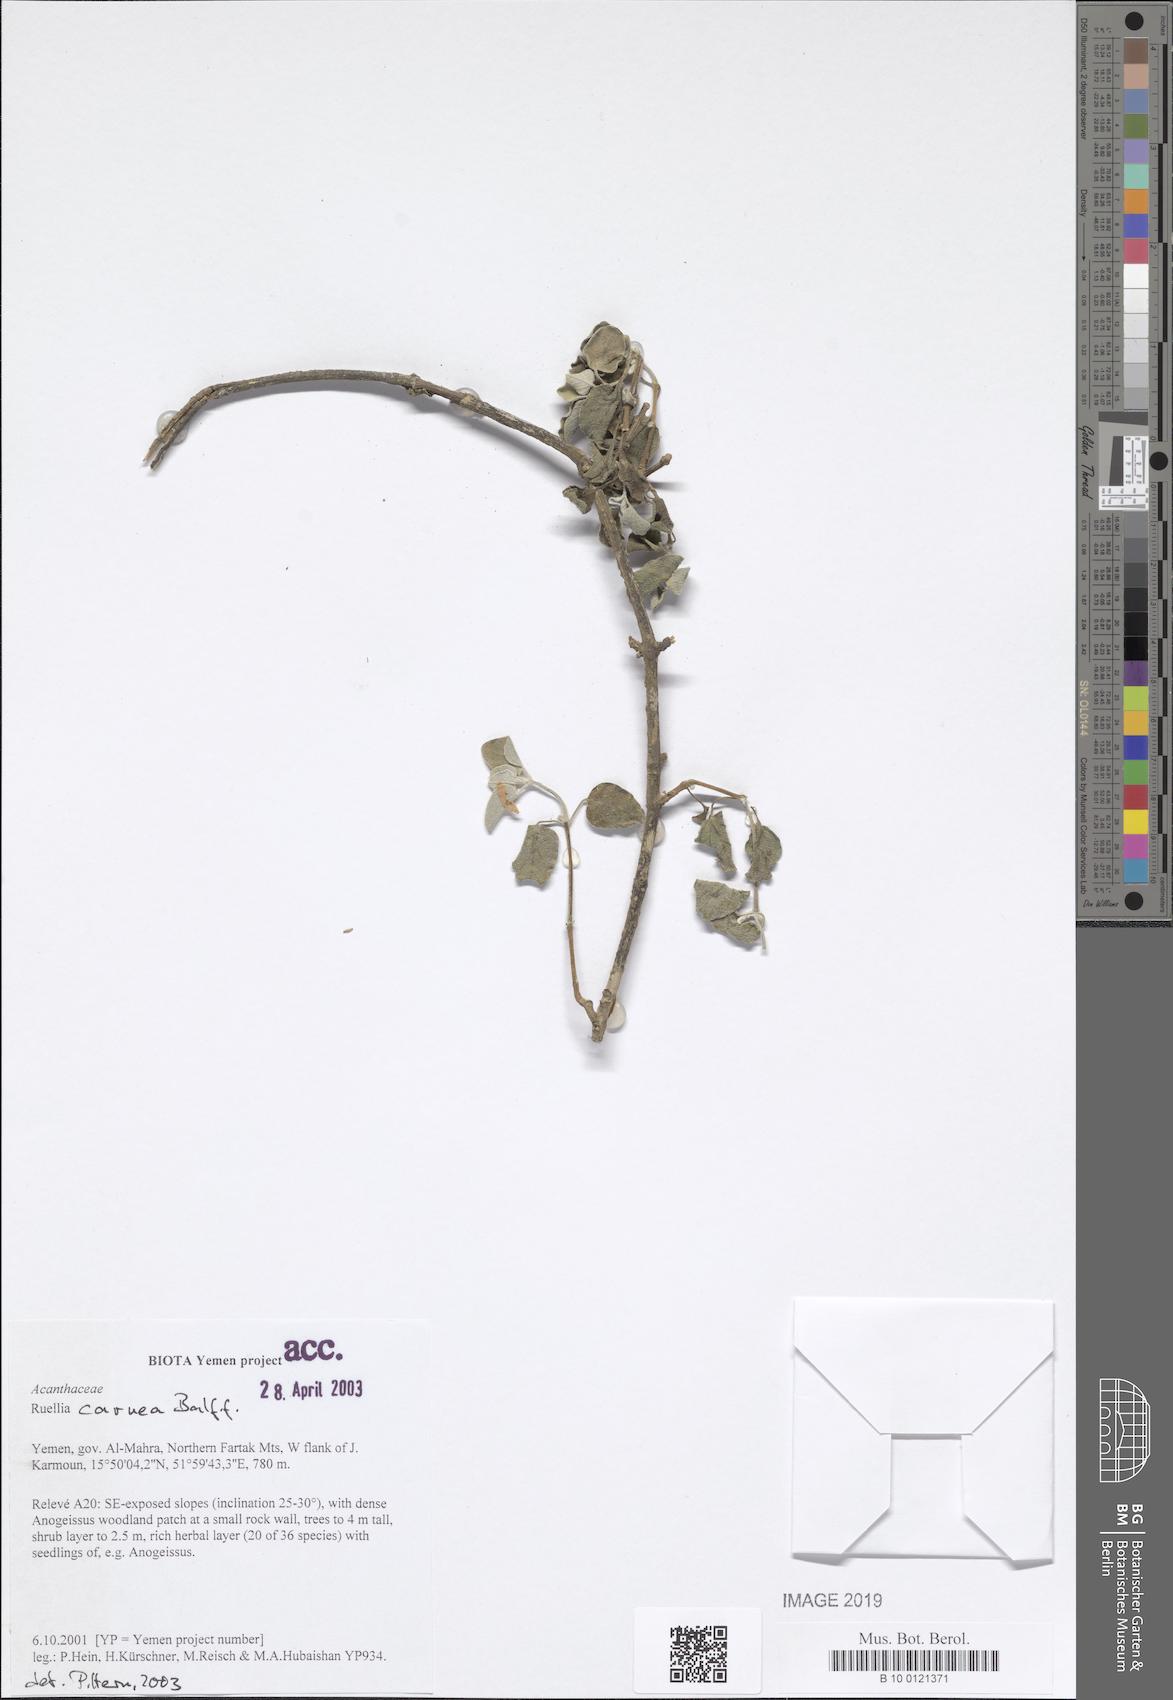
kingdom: Plantae
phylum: Tracheophyta
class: Magnoliopsida
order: Lamiales
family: Acanthaceae
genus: Ruellia
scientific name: Ruellia carnea
